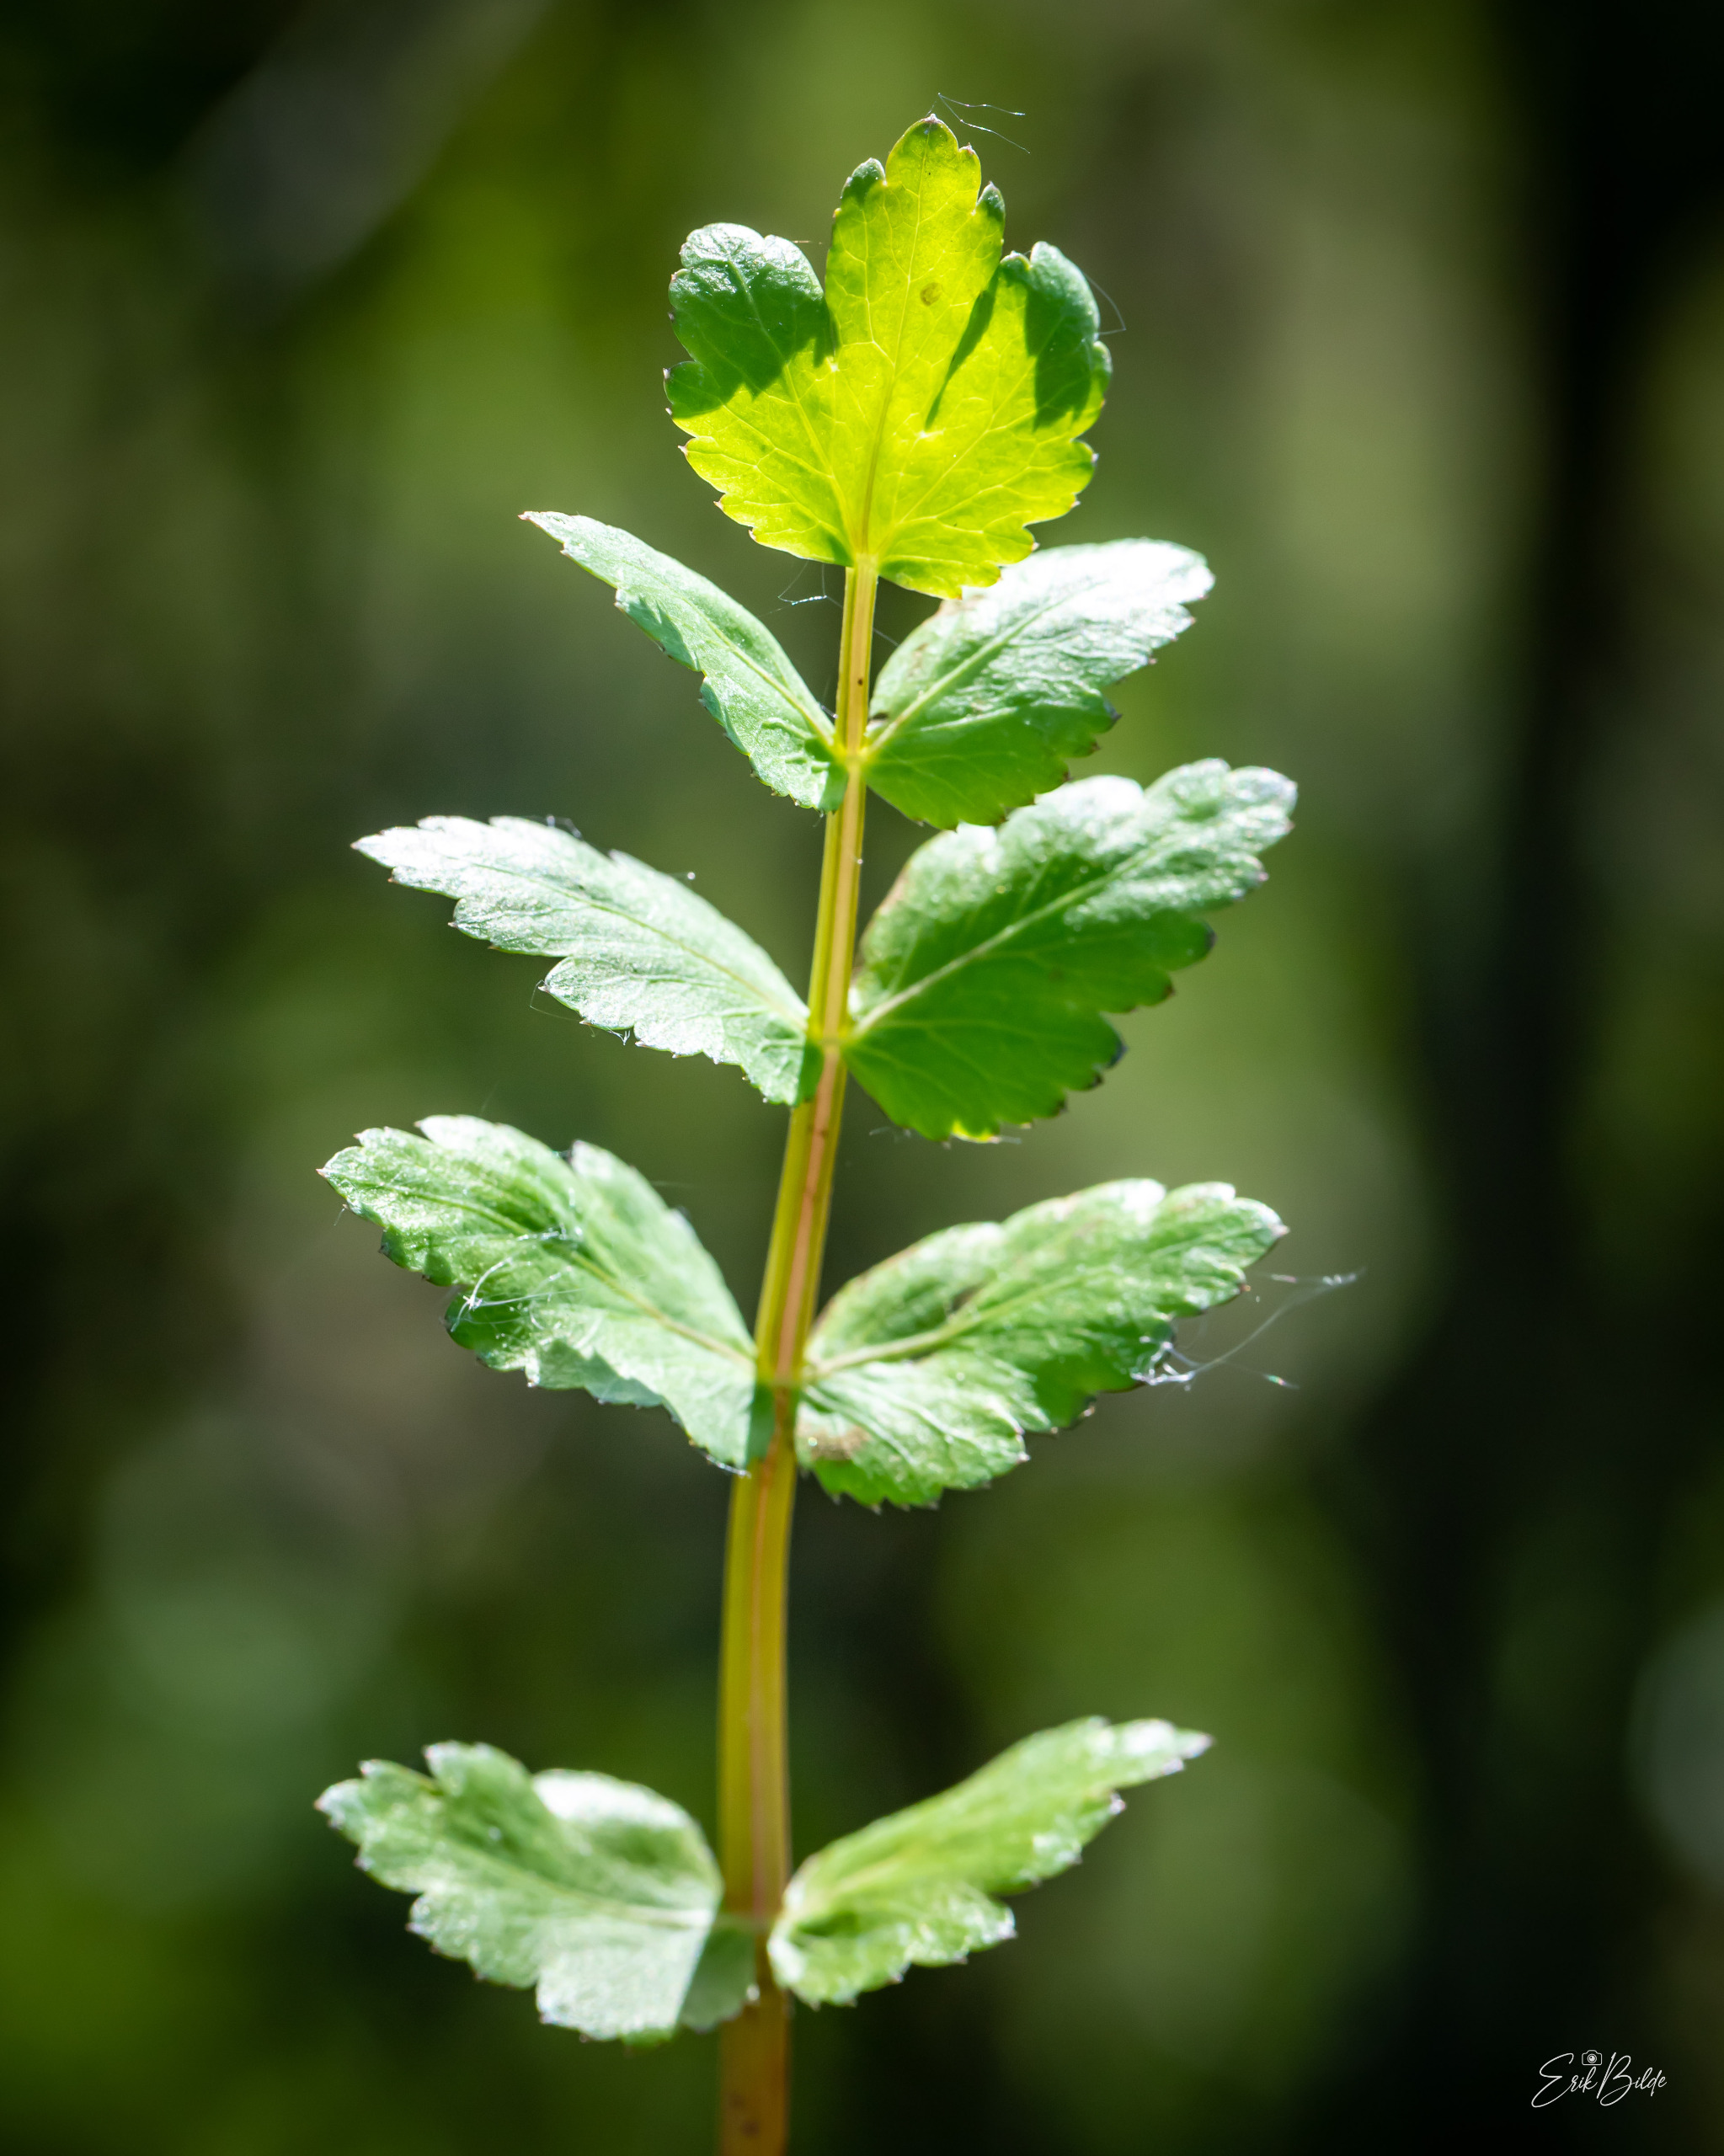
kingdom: Plantae
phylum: Tracheophyta
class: Magnoliopsida
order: Apiales
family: Apiaceae
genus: Berula
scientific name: Berula erecta
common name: Sideskærm
